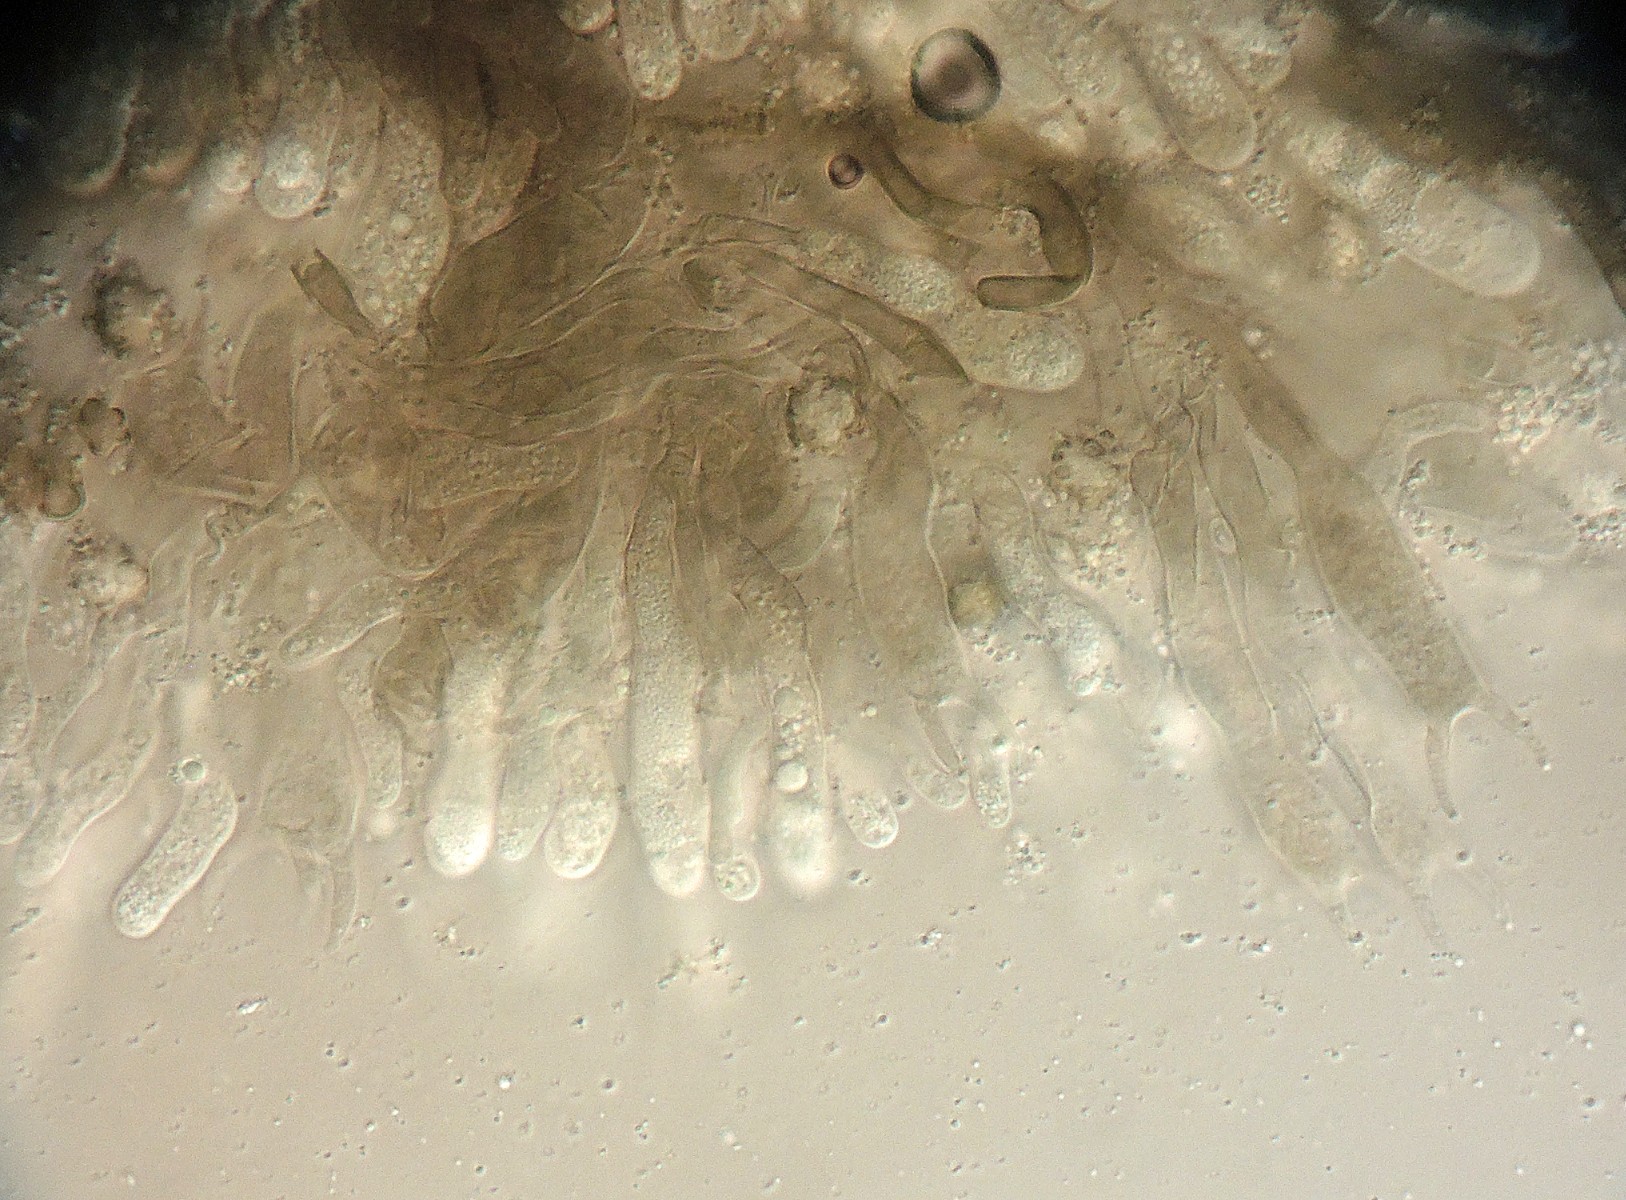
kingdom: Fungi
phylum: Basidiomycota
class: Agaricomycetes
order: Thelephorales
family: Thelephoraceae
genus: Polyozellus
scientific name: Polyozellus humicola
